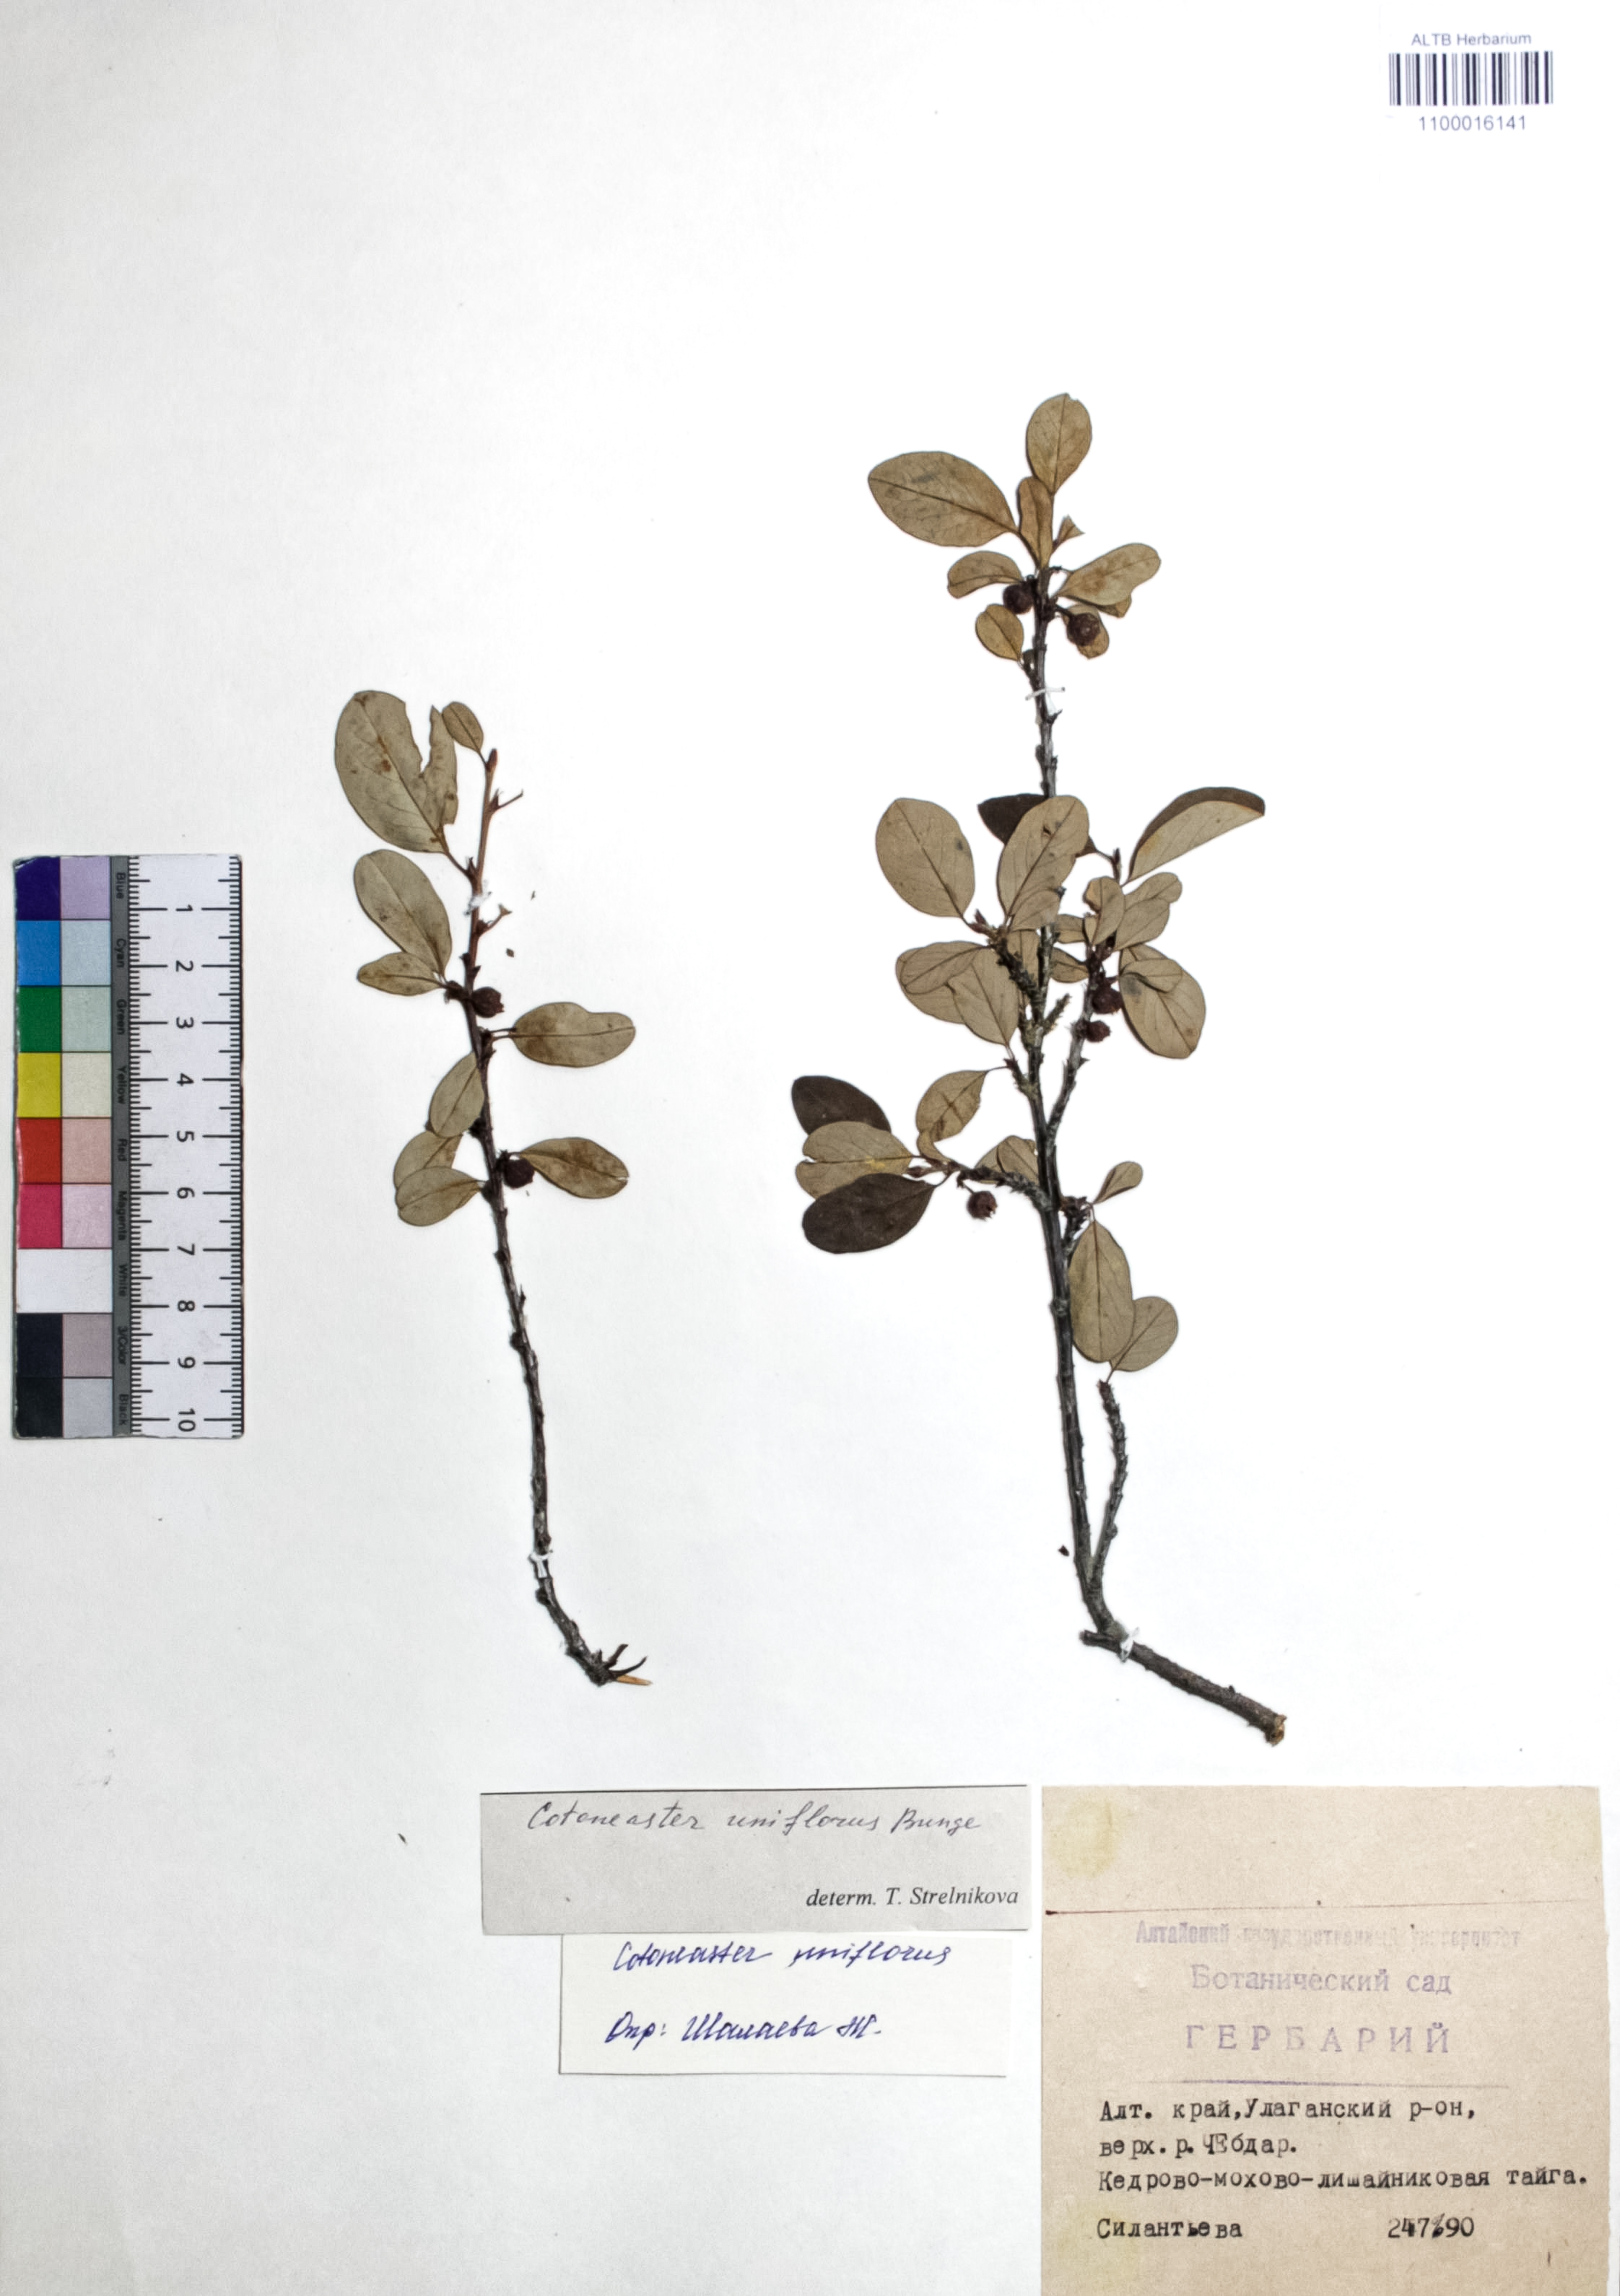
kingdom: Plantae
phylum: Tracheophyta
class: Magnoliopsida
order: Rosales
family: Rosaceae
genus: Cotoneaster
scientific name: Cotoneaster uniflorus
